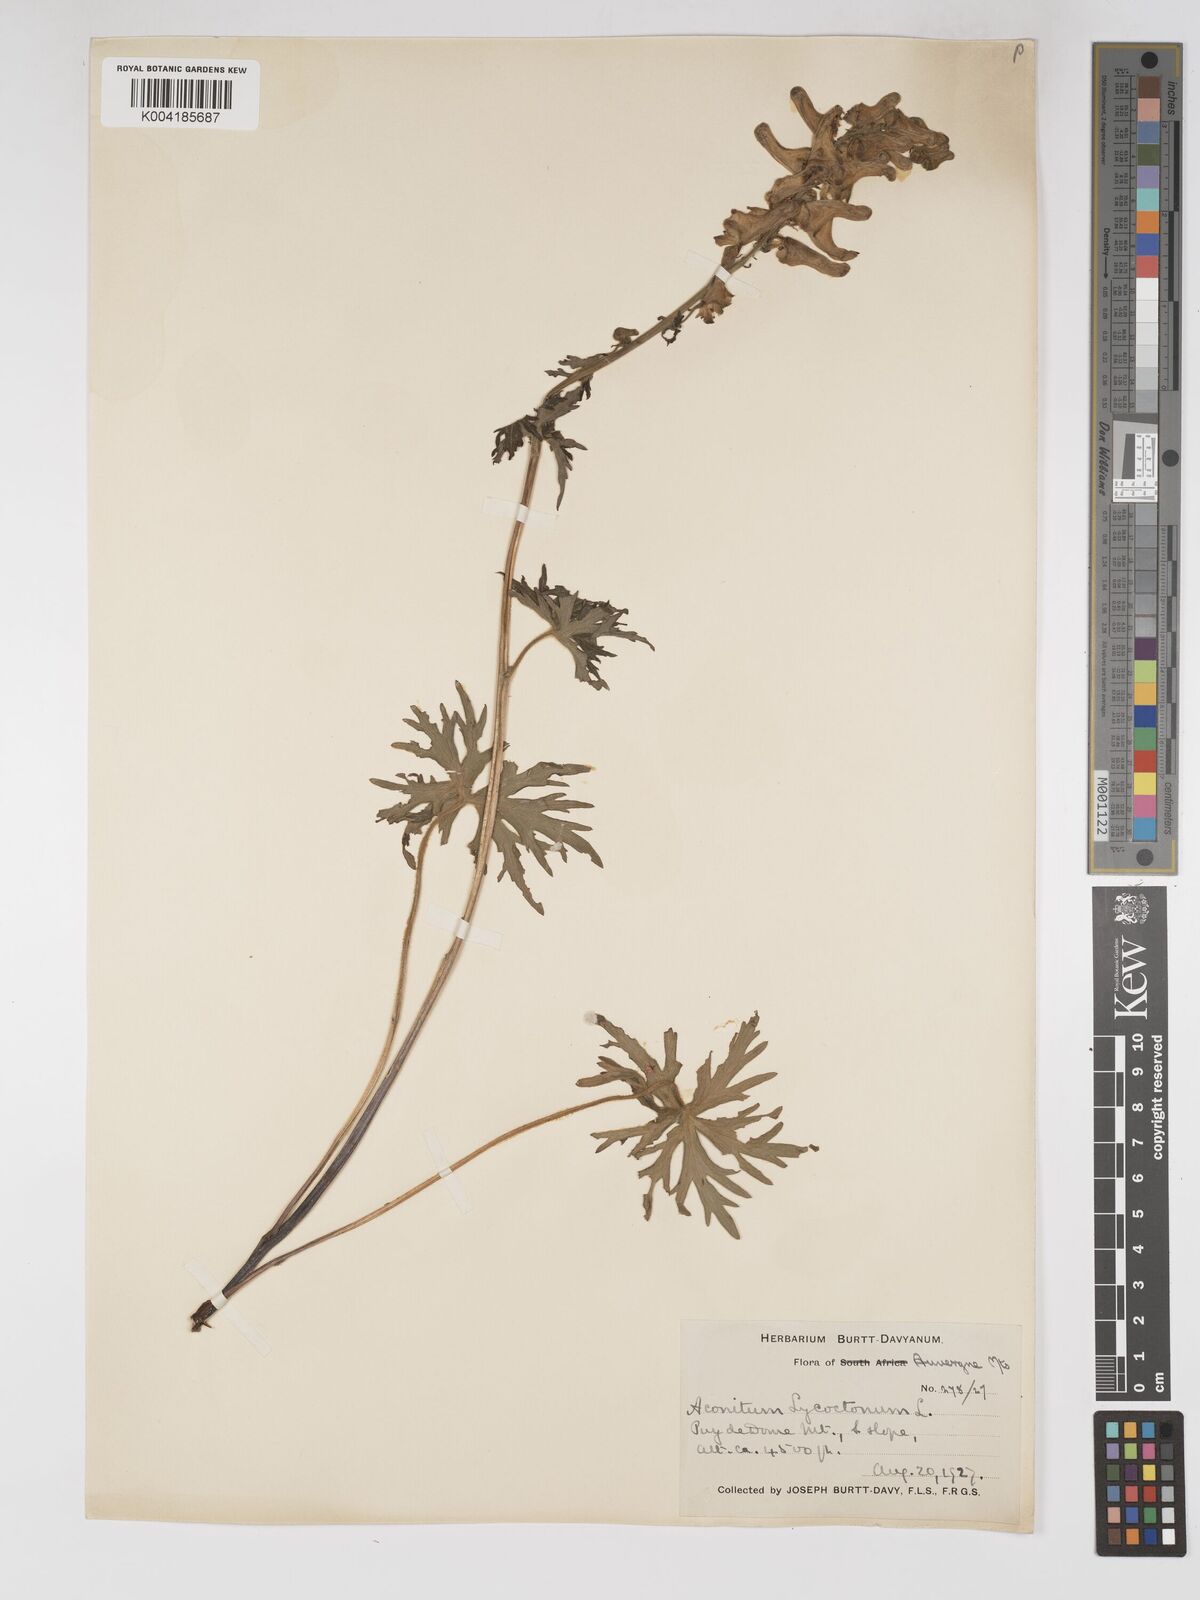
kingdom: Plantae
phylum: Tracheophyta
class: Magnoliopsida
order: Ranunculales
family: Ranunculaceae
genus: Aconitum
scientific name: Aconitum lycoctonum
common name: Wolf's-bane
